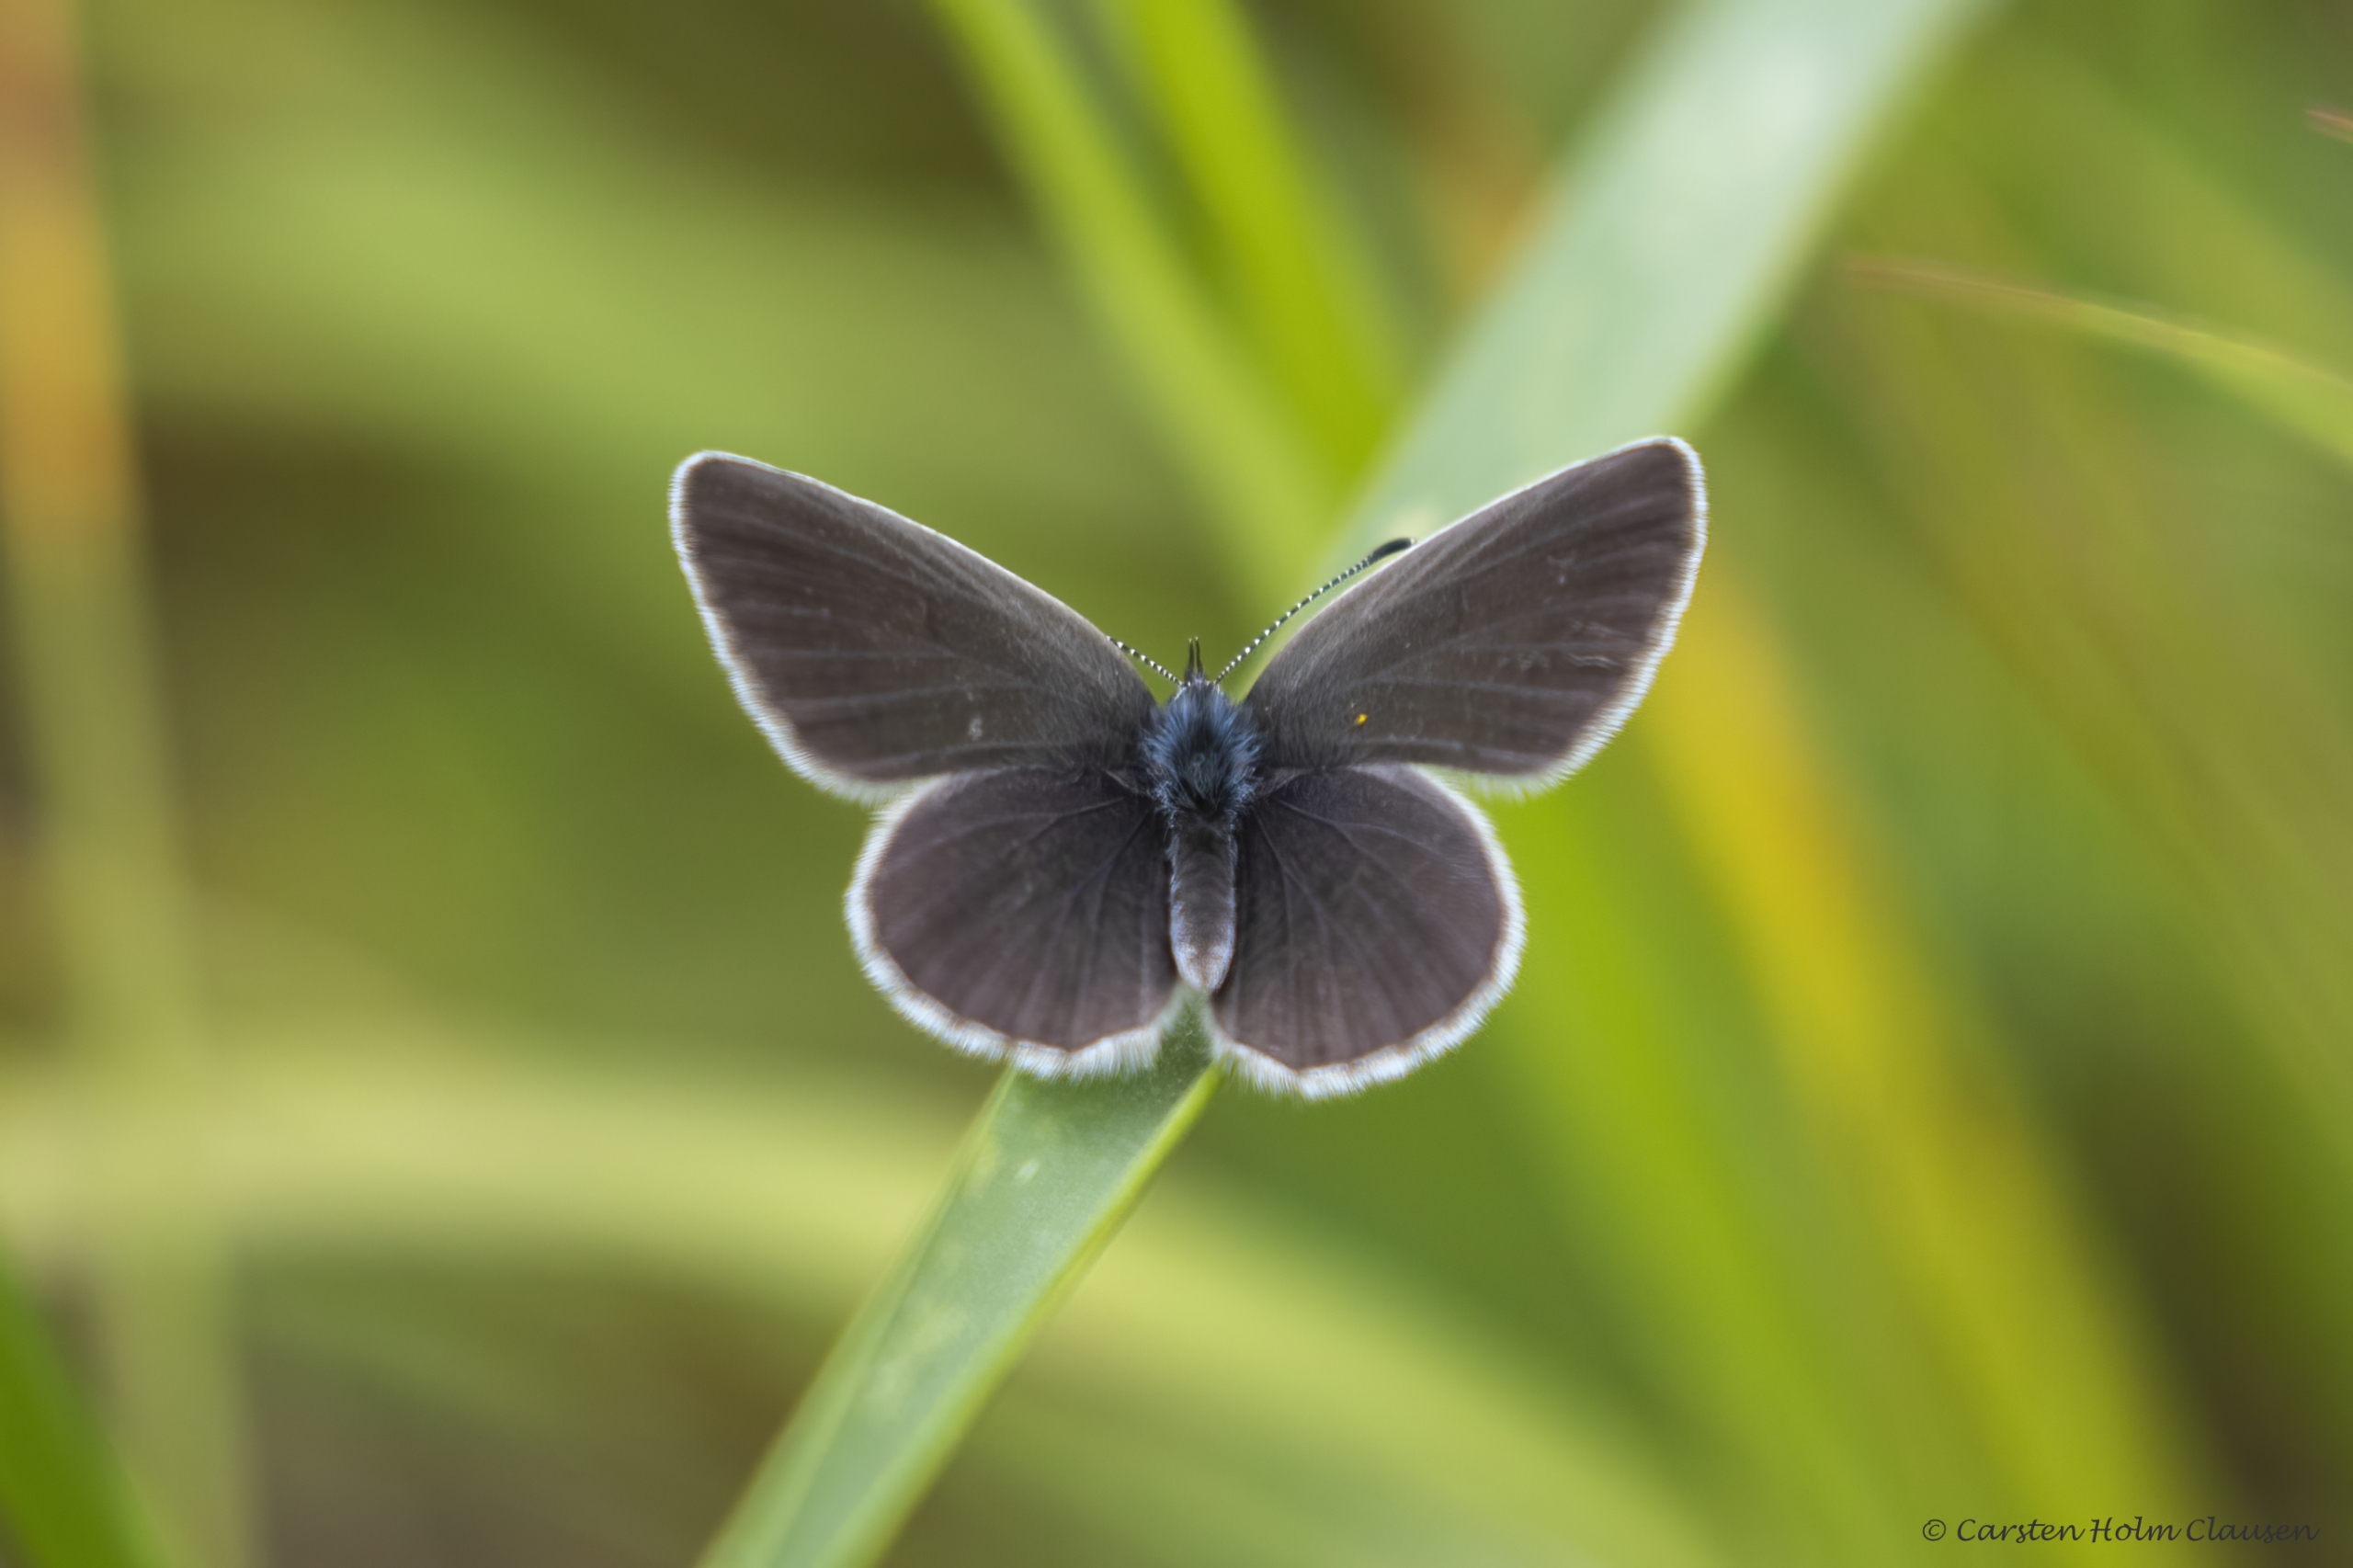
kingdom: Animalia
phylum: Arthropoda
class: Insecta
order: Lepidoptera
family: Lycaenidae
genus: Cupido
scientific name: Cupido minimus
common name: Dværgblåfugl
